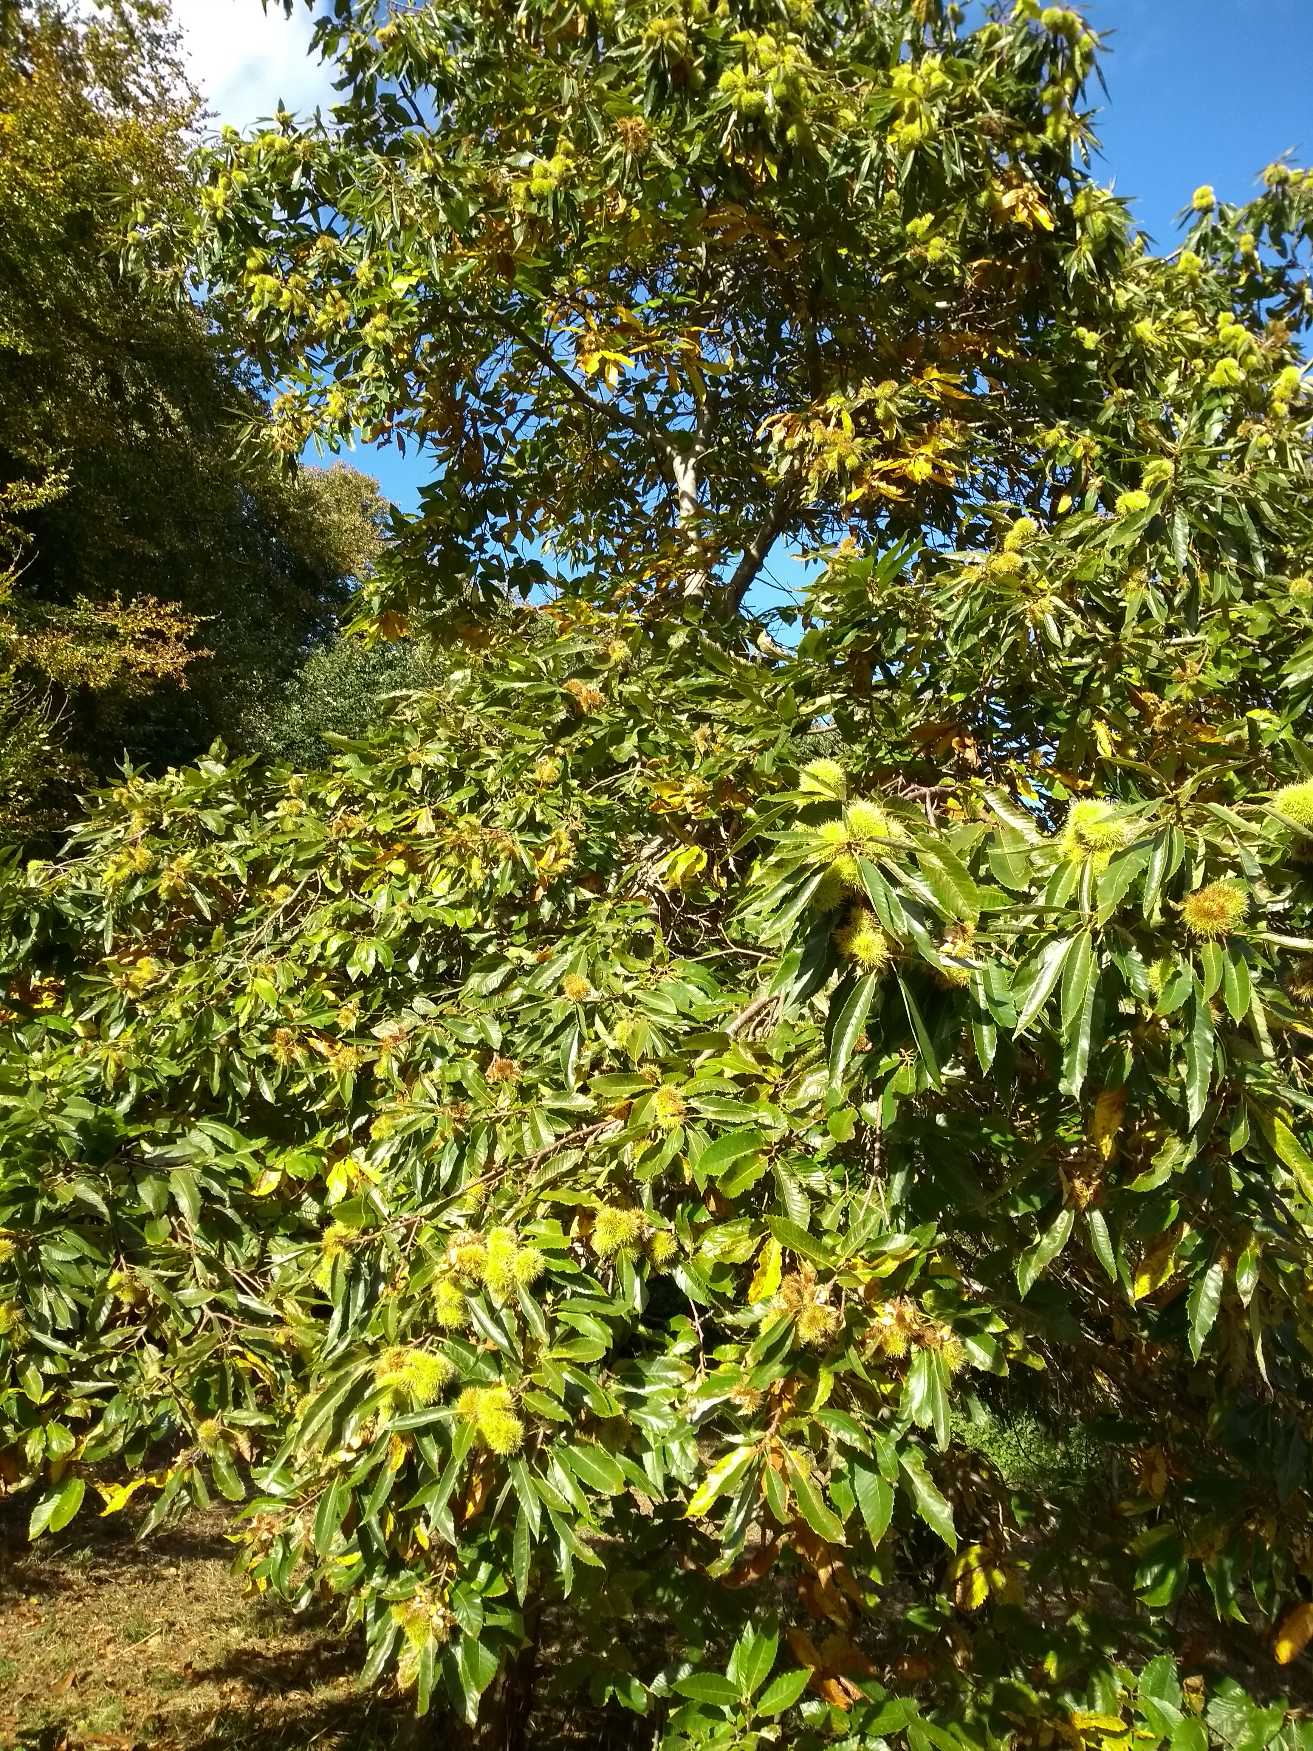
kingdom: Plantae
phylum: Tracheophyta
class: Magnoliopsida
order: Fagales
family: Fagaceae
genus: Castanea
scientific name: Castanea sativa
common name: Ægte kastanie
